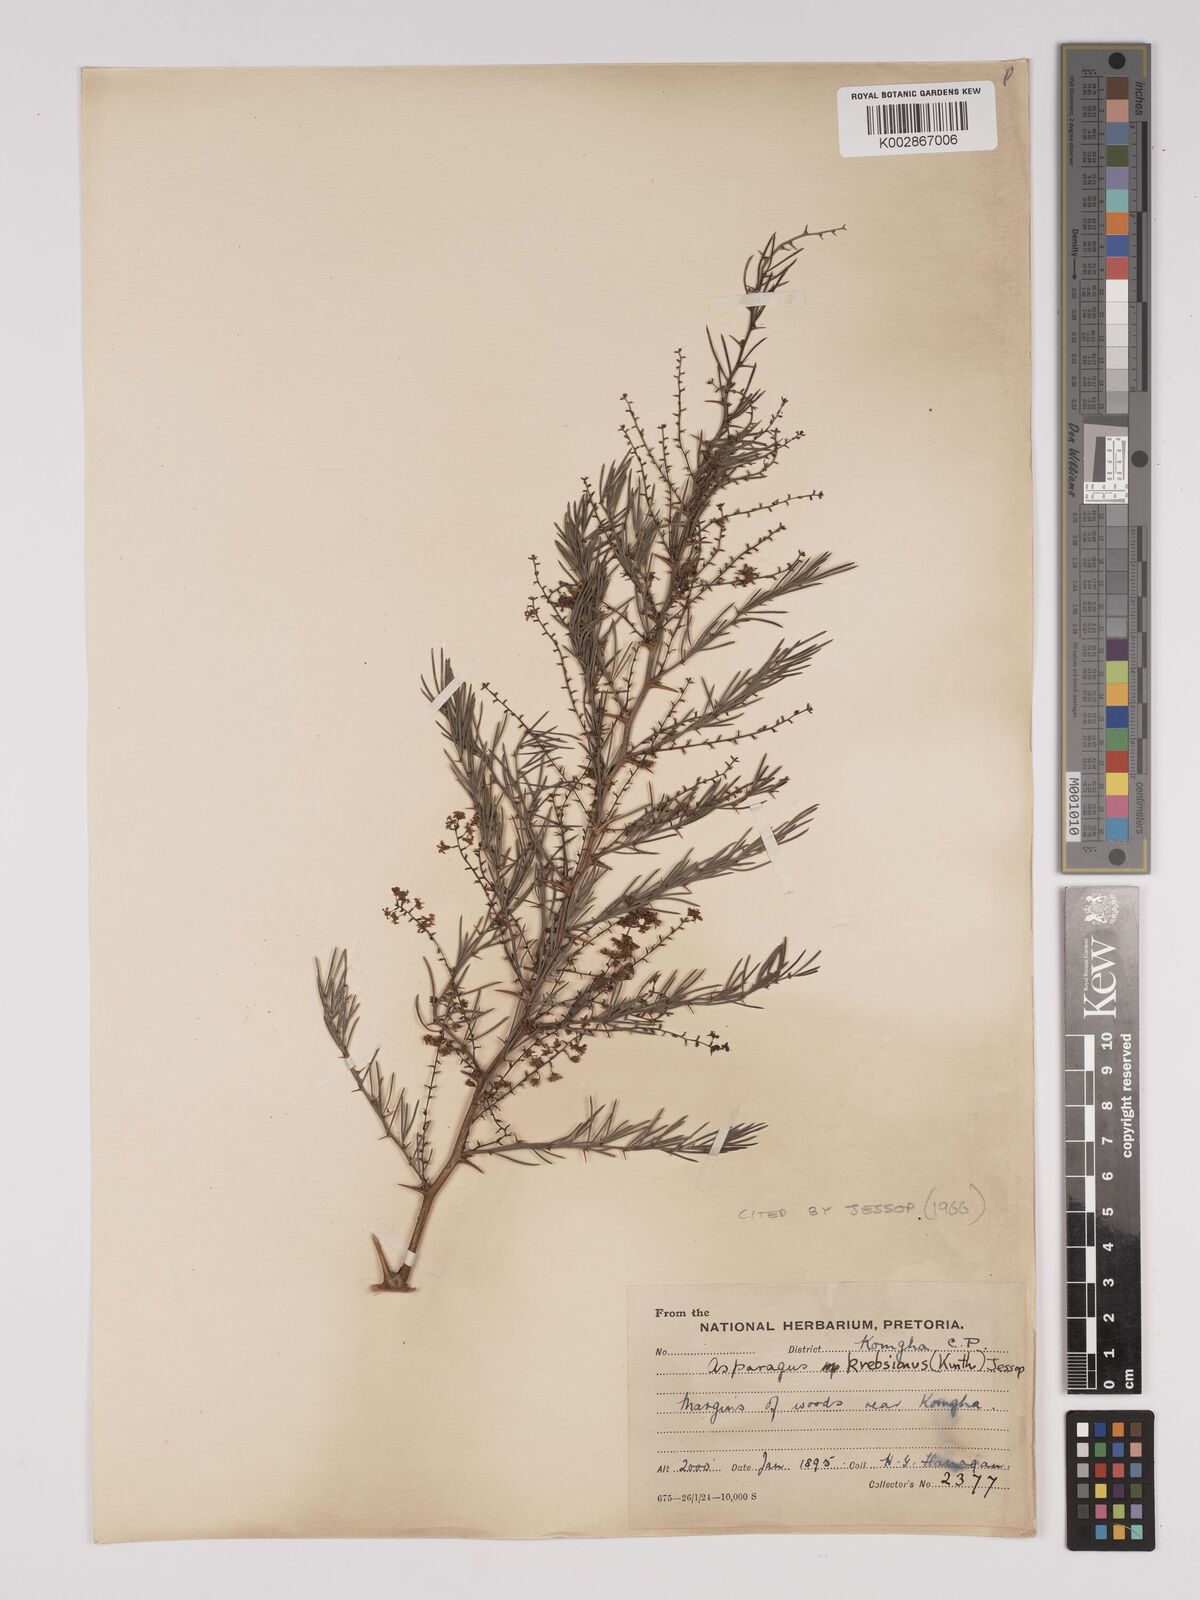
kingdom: Plantae
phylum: Tracheophyta
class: Liliopsida
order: Asparagales
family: Asparagaceae
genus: Asparagus
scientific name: Asparagus breslerianus
